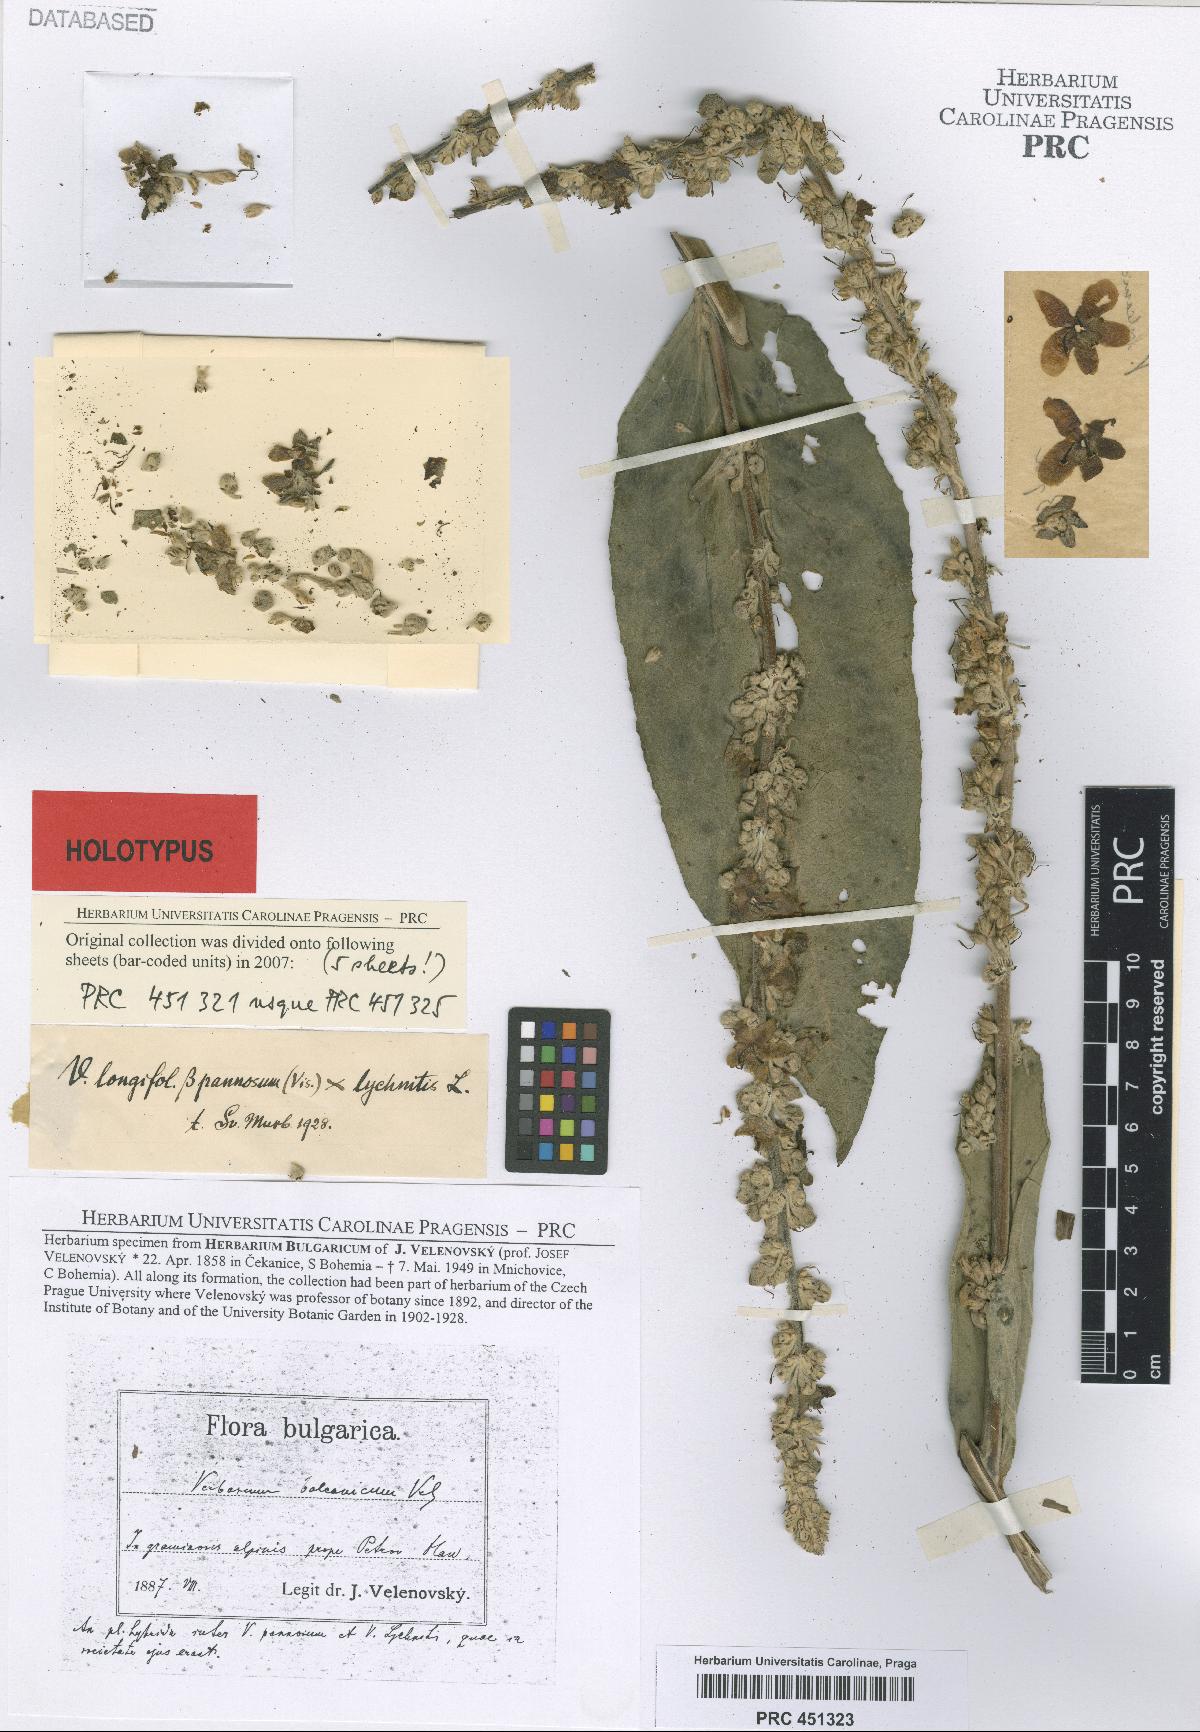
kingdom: Plantae
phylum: Tracheophyta
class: Magnoliopsida
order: Lamiales
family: Scrophulariaceae
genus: Verbascum
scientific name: Verbascum balcanicum
